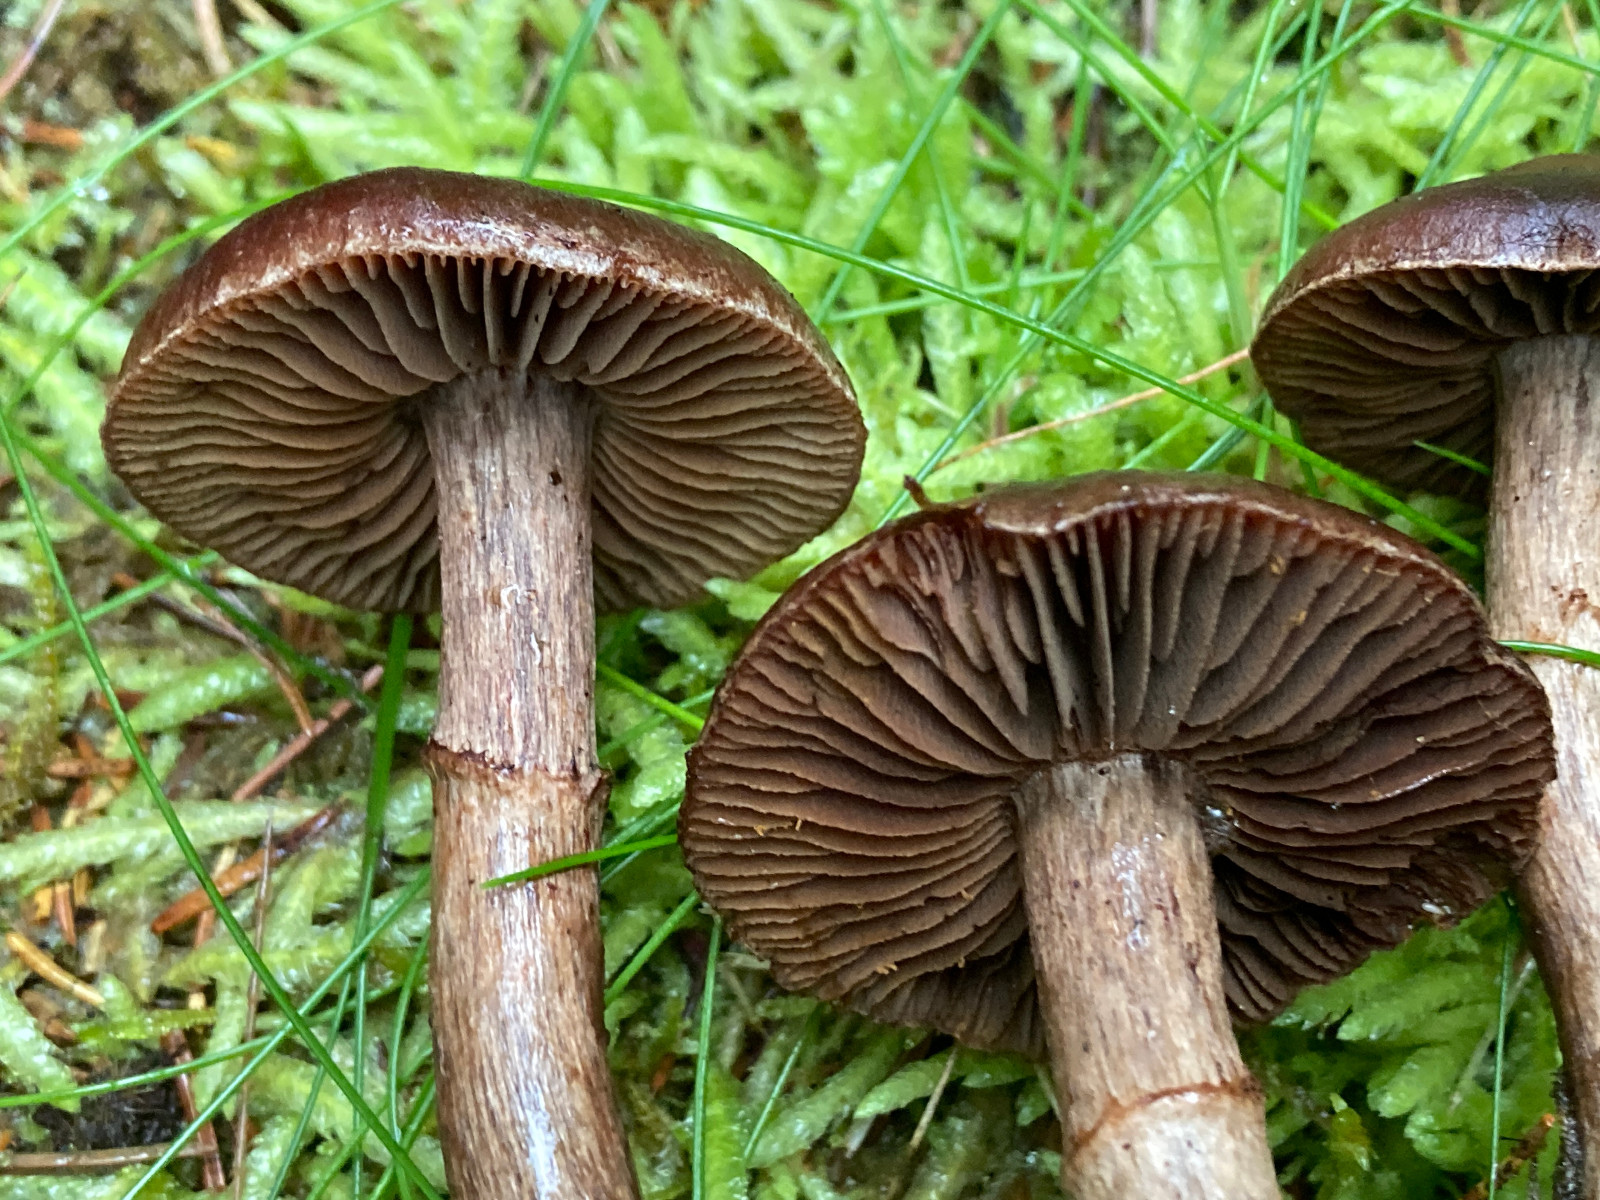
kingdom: Fungi
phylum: Basidiomycota
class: Agaricomycetes
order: Agaricales
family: Cortinariaceae
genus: Cortinarius
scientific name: Cortinarius
